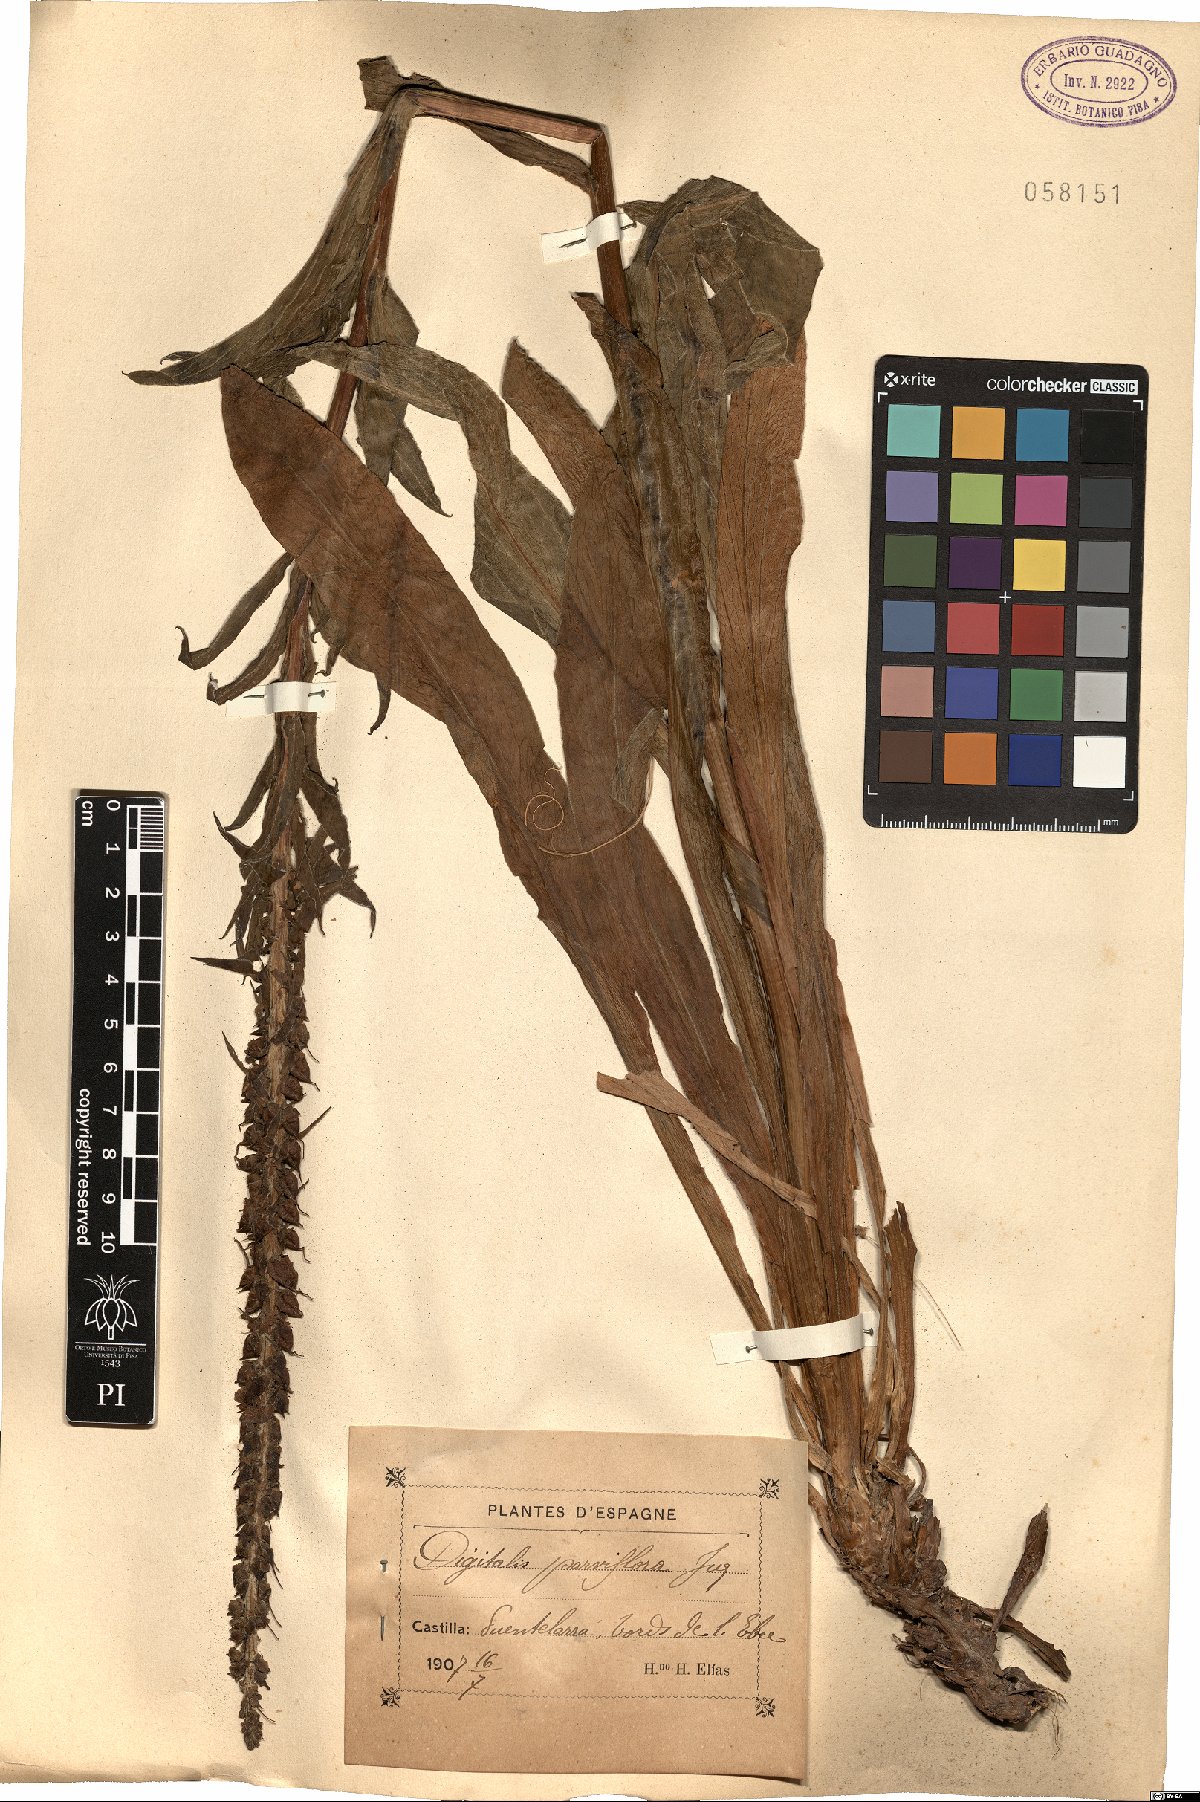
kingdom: Plantae
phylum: Tracheophyta
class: Magnoliopsida
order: Lamiales
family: Plantaginaceae
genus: Digitalis
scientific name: Digitalis parviflora
